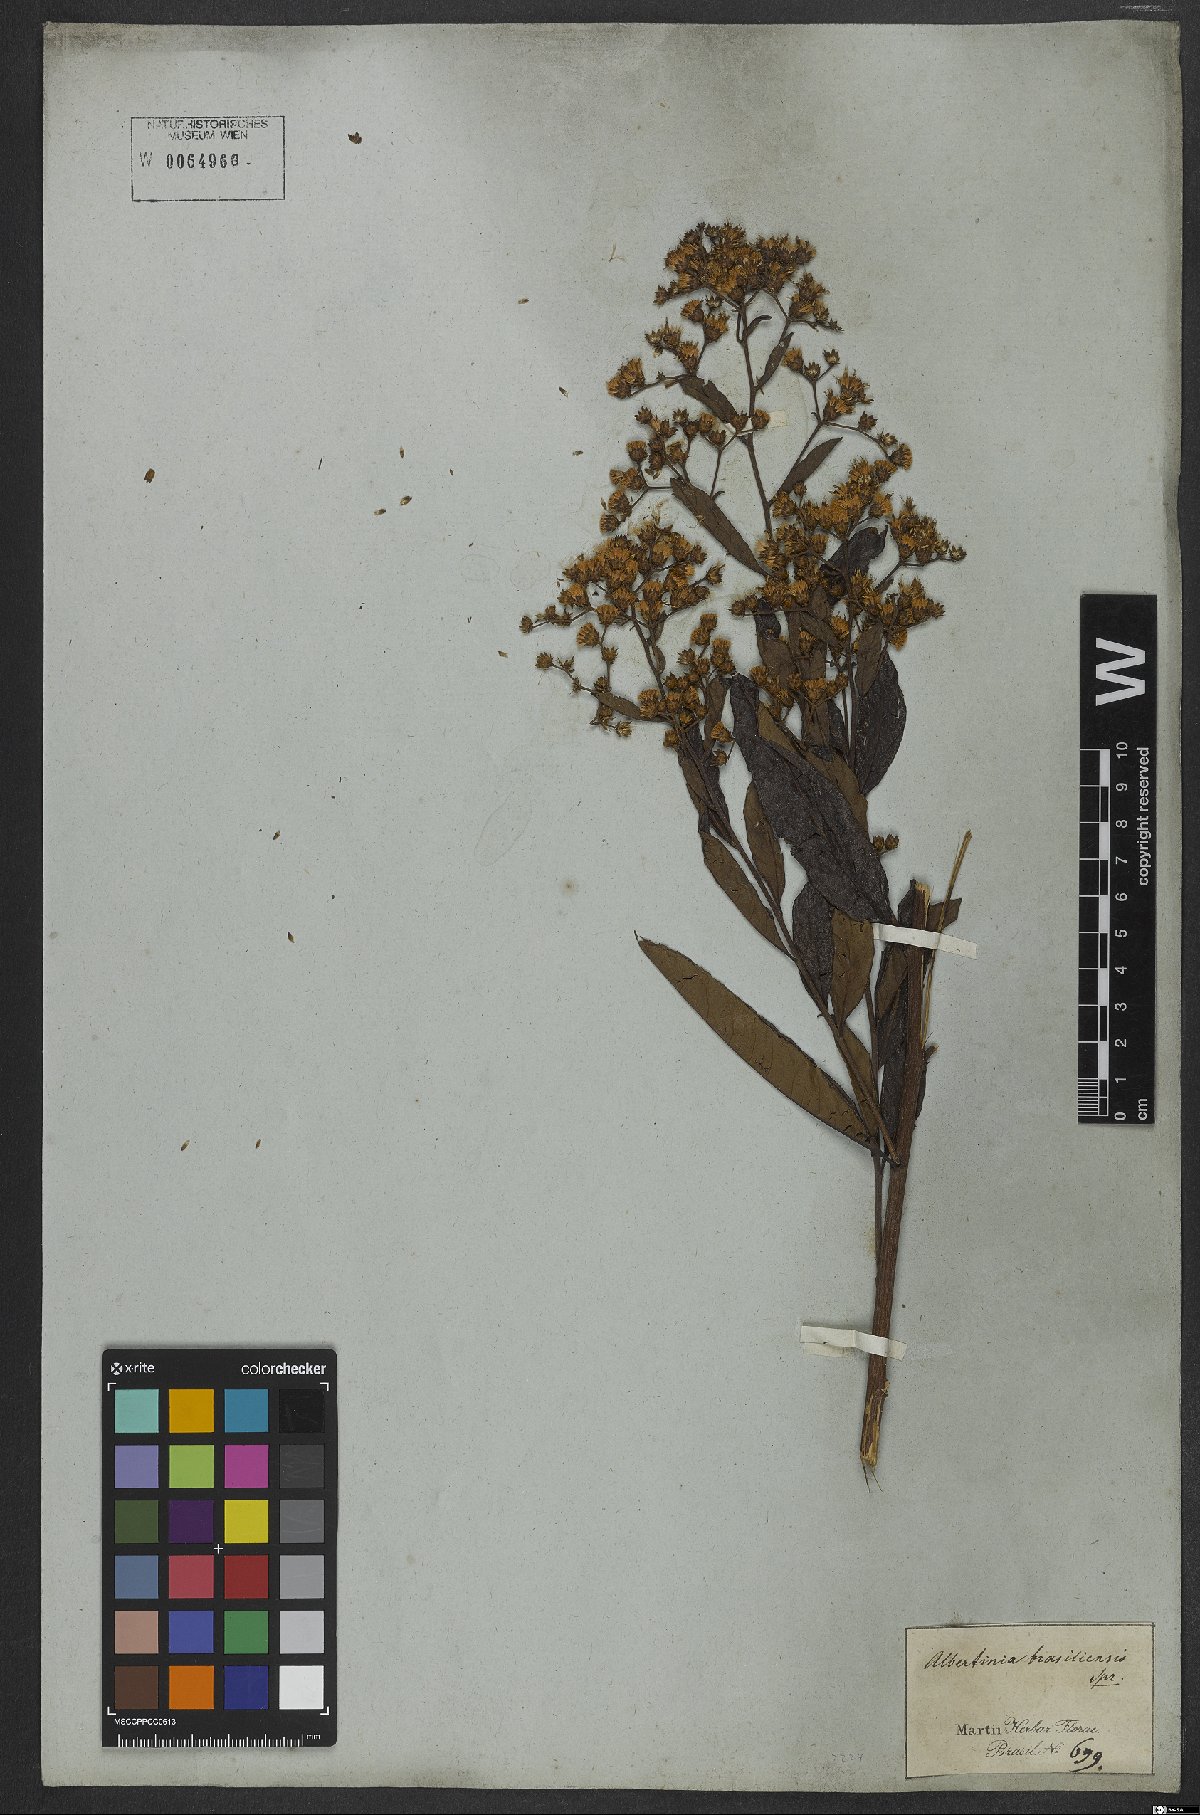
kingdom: Plantae
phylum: Tracheophyta
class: Magnoliopsida
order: Asterales
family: Asteraceae
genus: Vernonanthura
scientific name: Vernonanthura membranacea
